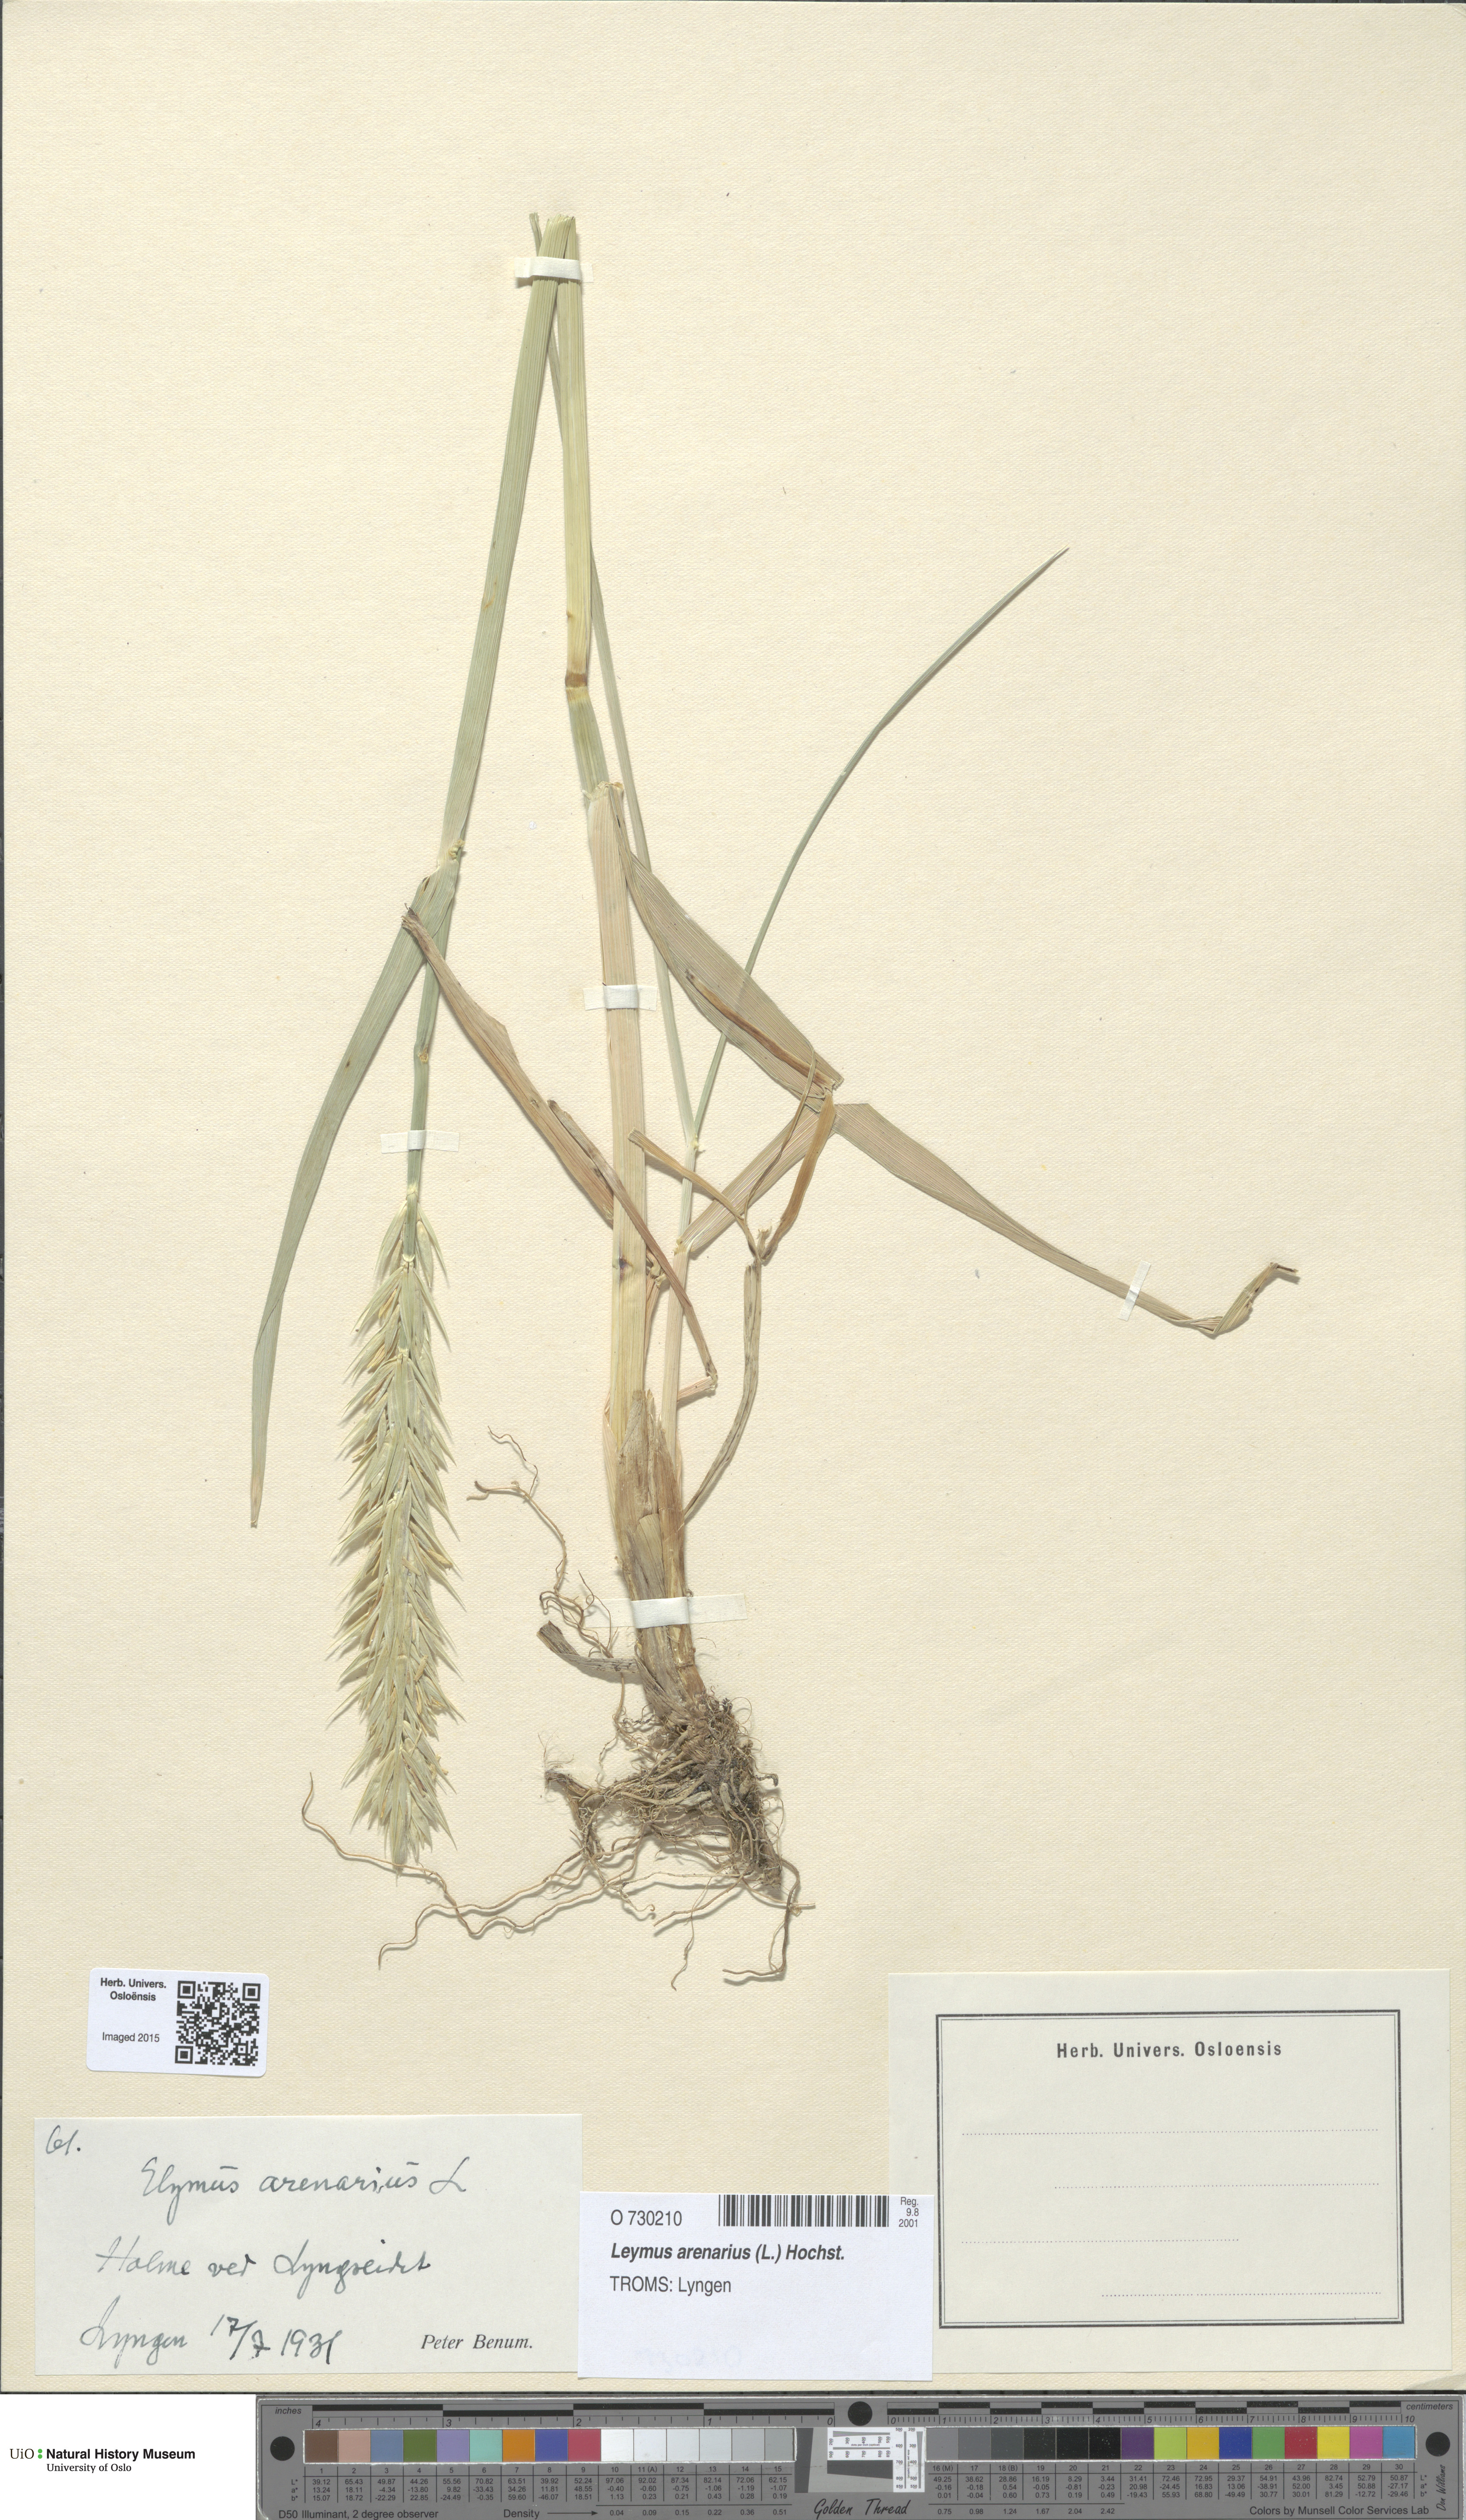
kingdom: Plantae
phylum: Tracheophyta
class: Liliopsida
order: Poales
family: Poaceae
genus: Leymus
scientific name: Leymus arenarius
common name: Lyme-grass
